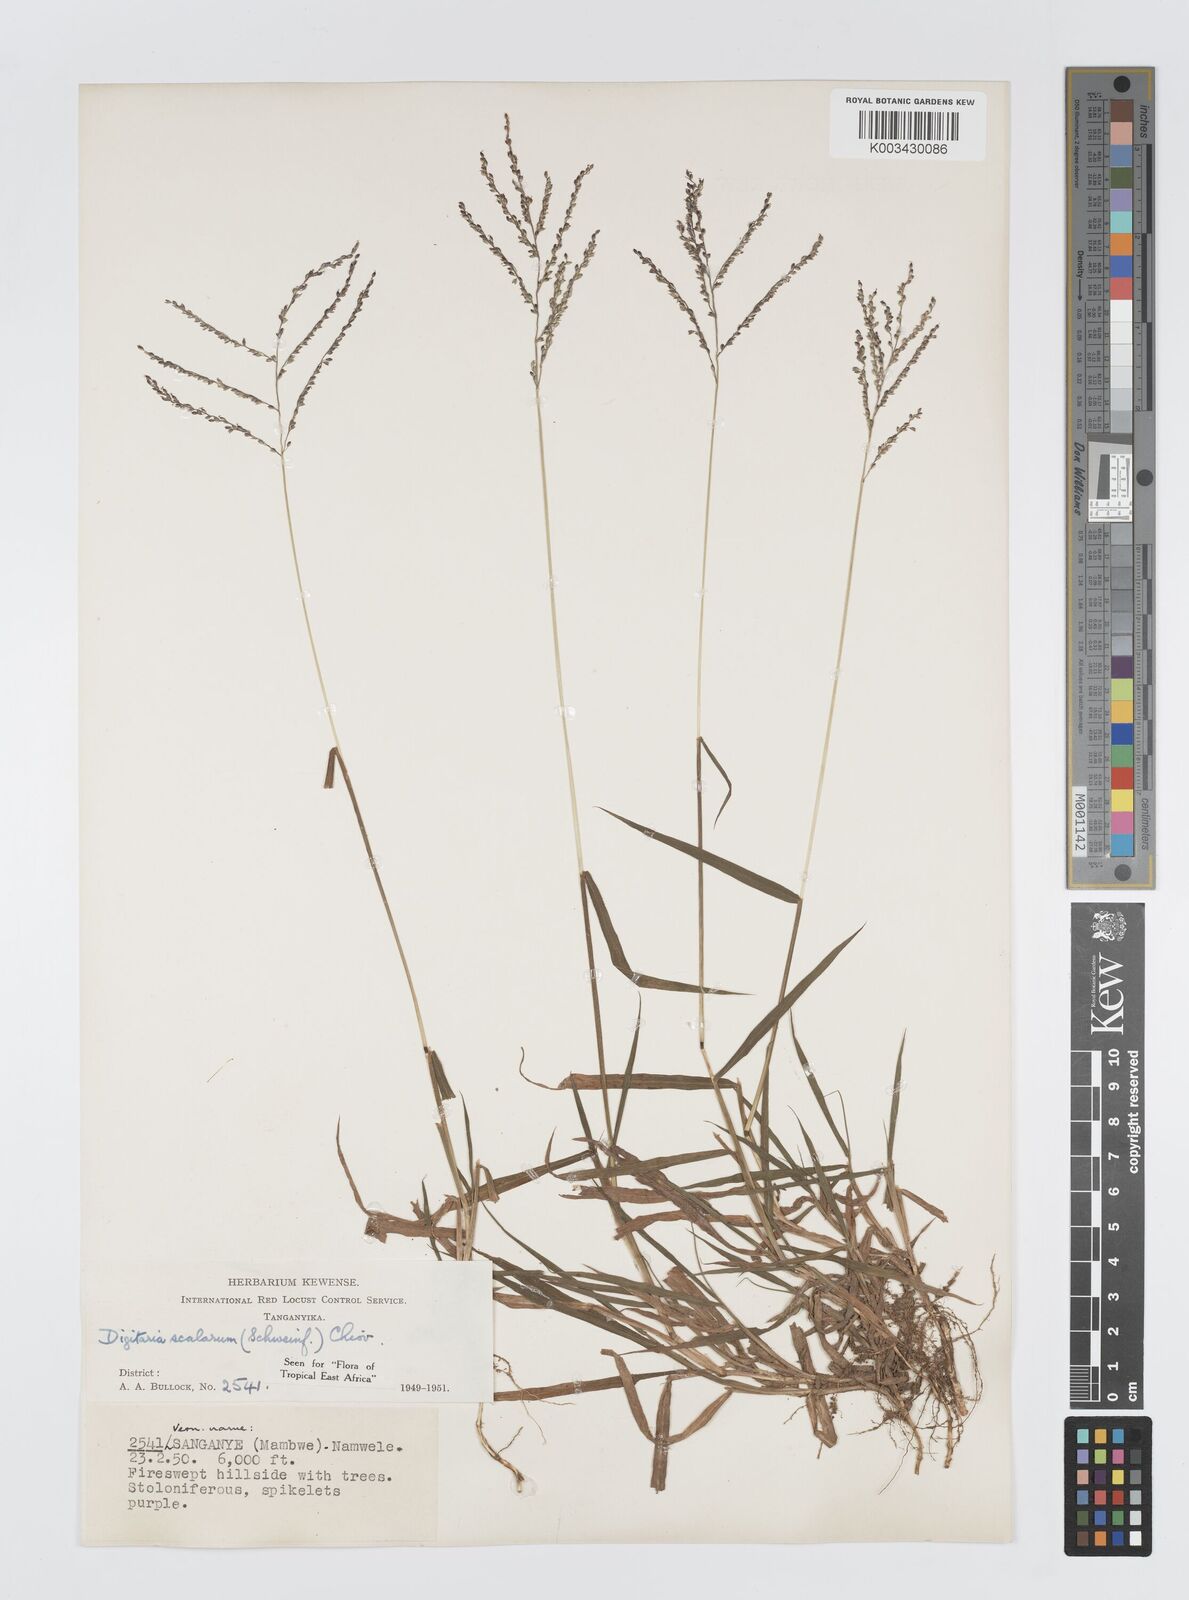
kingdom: Plantae
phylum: Tracheophyta
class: Liliopsida
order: Poales
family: Poaceae
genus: Digitaria
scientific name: Digitaria abyssinica
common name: African couchgrass
